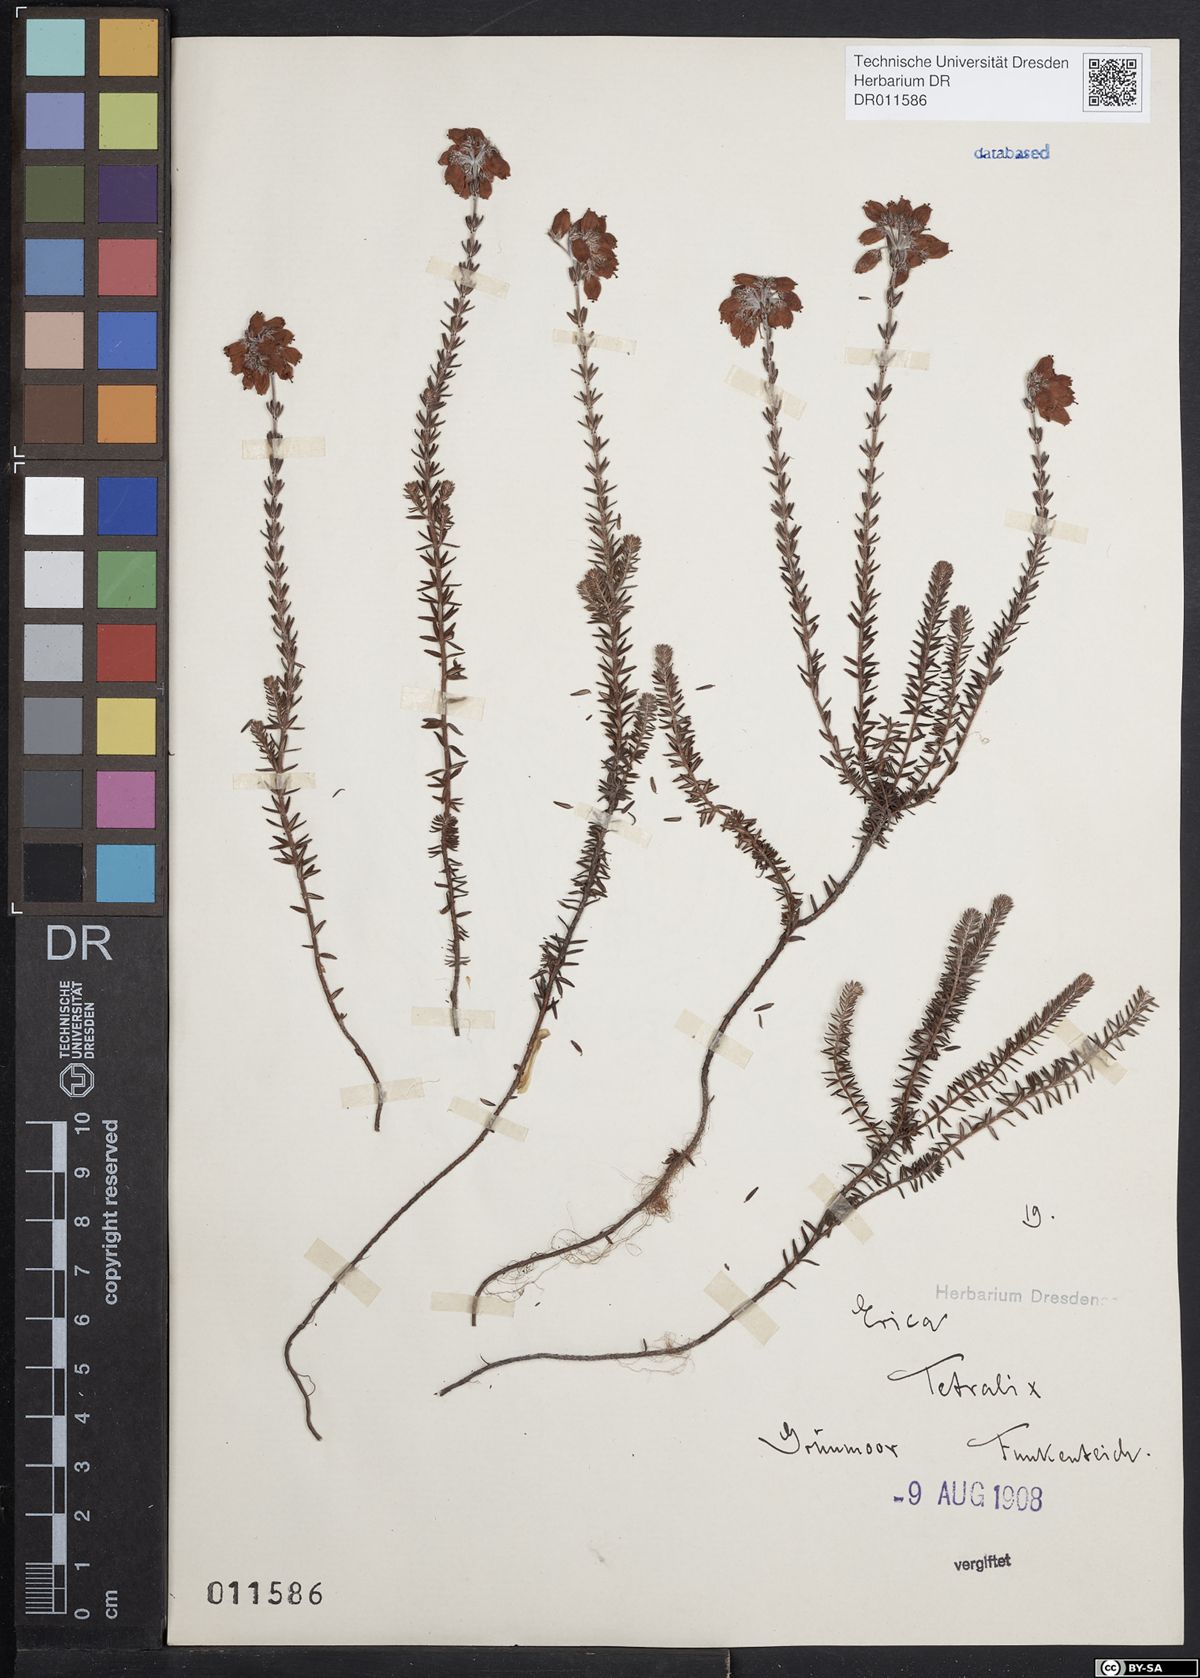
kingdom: Plantae
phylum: Tracheophyta
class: Magnoliopsida
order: Ericales
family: Ericaceae
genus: Erica
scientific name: Erica tetralix
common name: Cross-leaved heath
